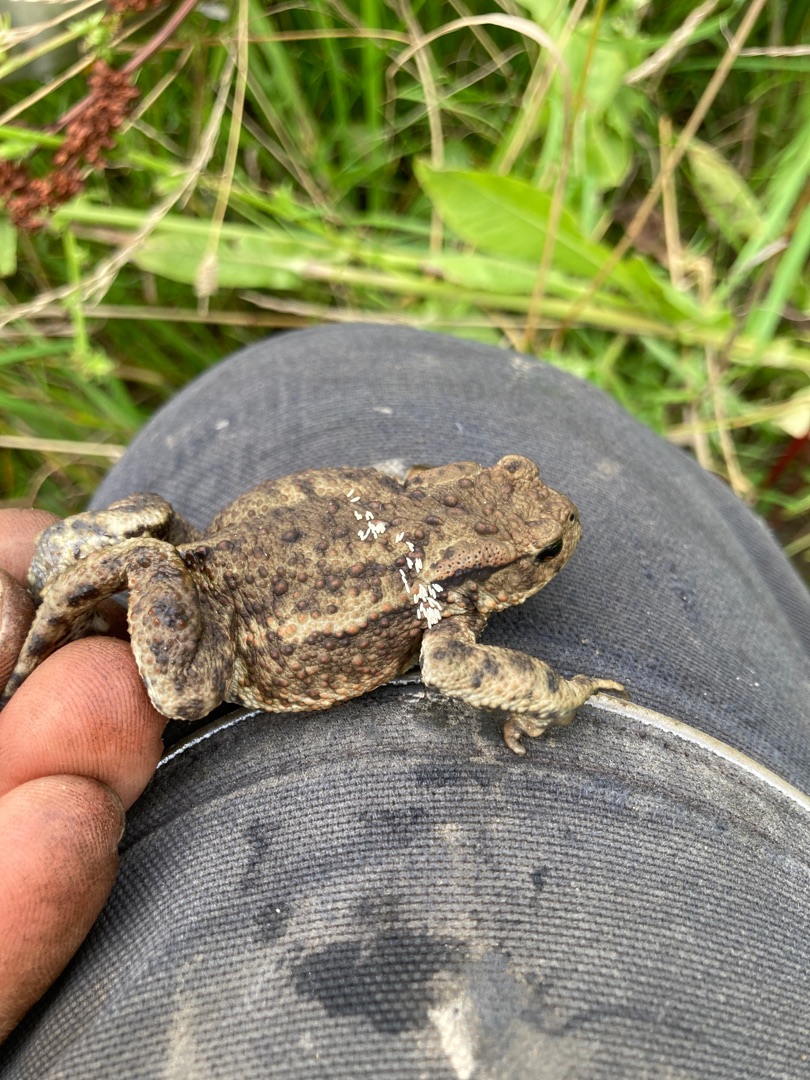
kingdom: Animalia
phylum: Chordata
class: Amphibia
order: Anura
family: Bufonidae
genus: Bufo
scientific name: Bufo bufo
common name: Skrubtudse
